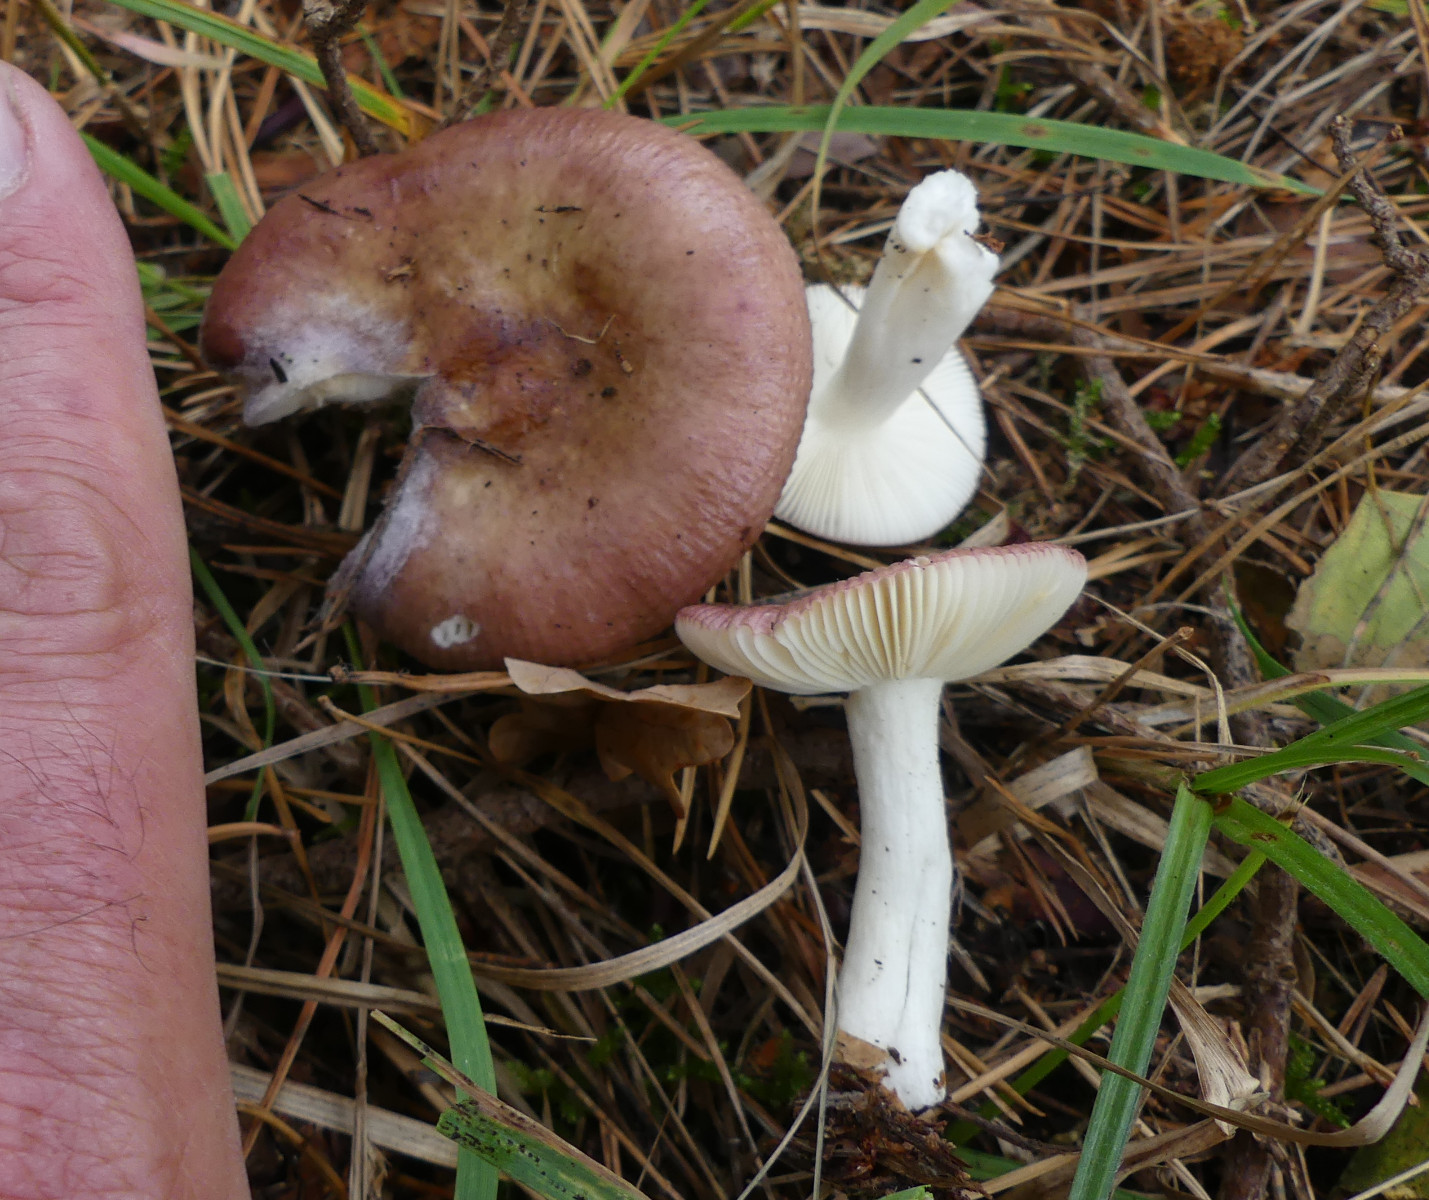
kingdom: Fungi
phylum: Basidiomycota
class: Agaricomycetes
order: Russulales
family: Russulaceae
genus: Russula
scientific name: Russula
